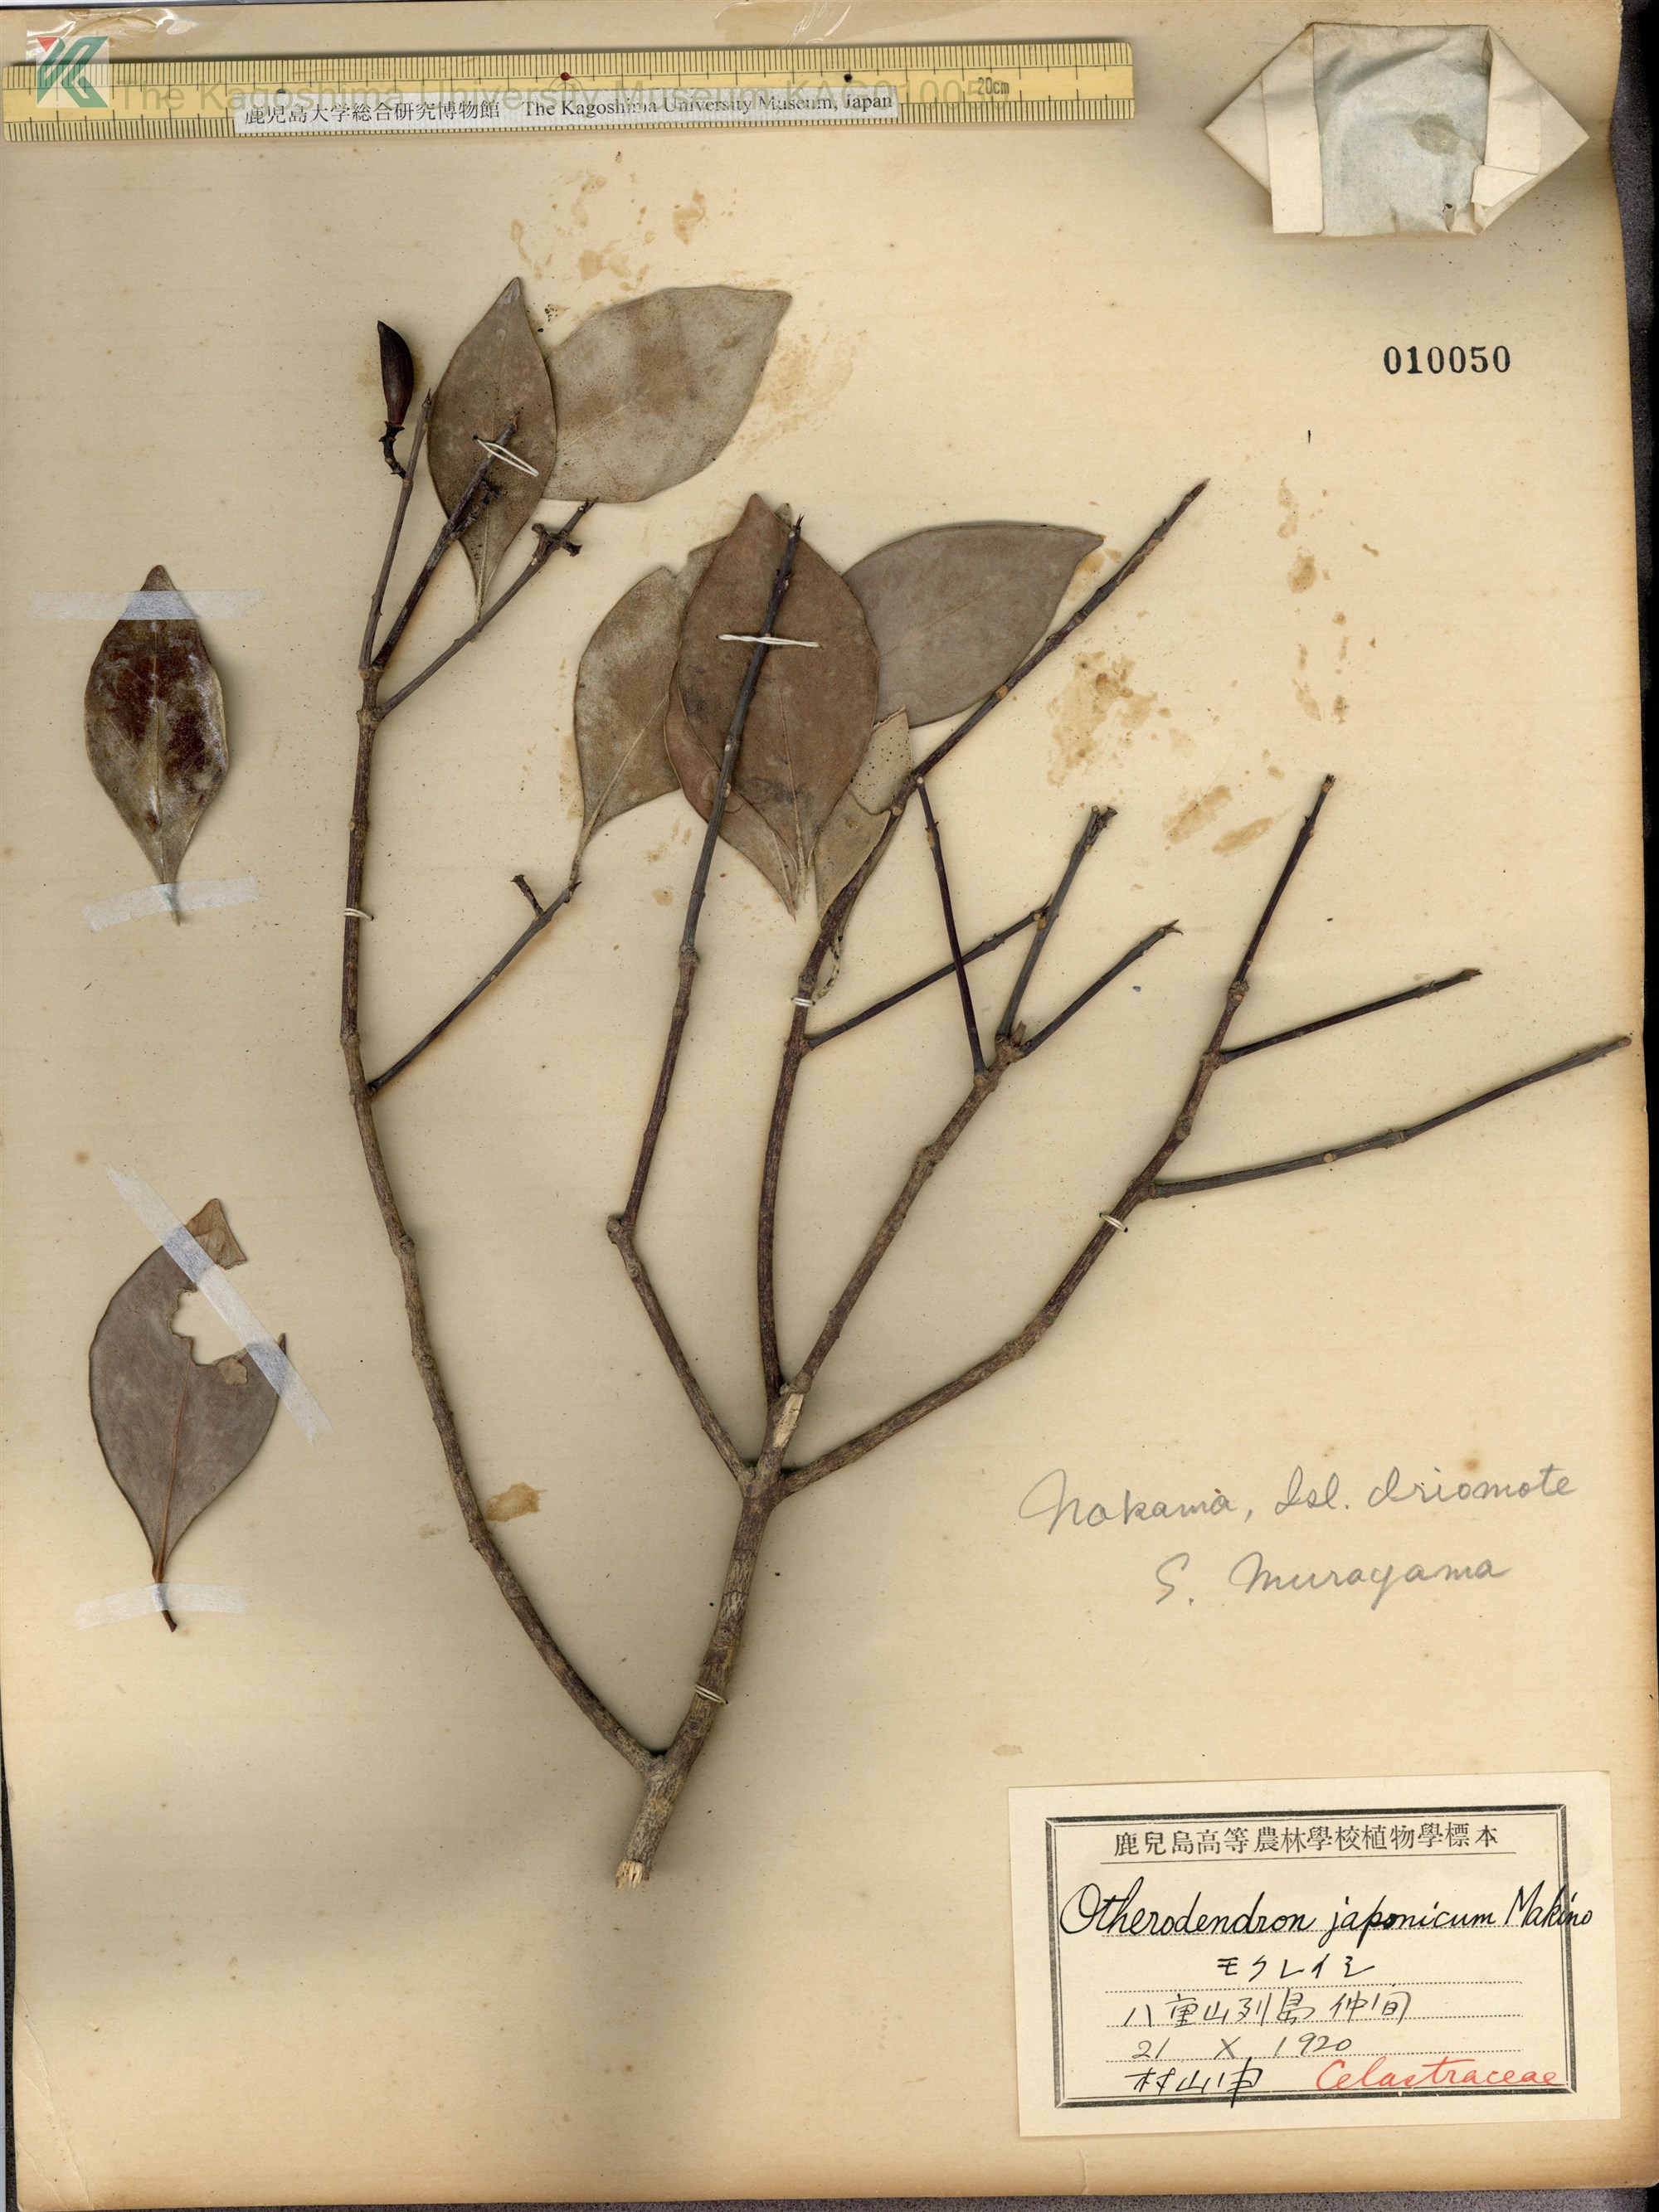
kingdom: Plantae
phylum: Tracheophyta
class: Magnoliopsida
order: Celastrales
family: Celastraceae
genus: Microtropis
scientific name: Microtropis japonica
